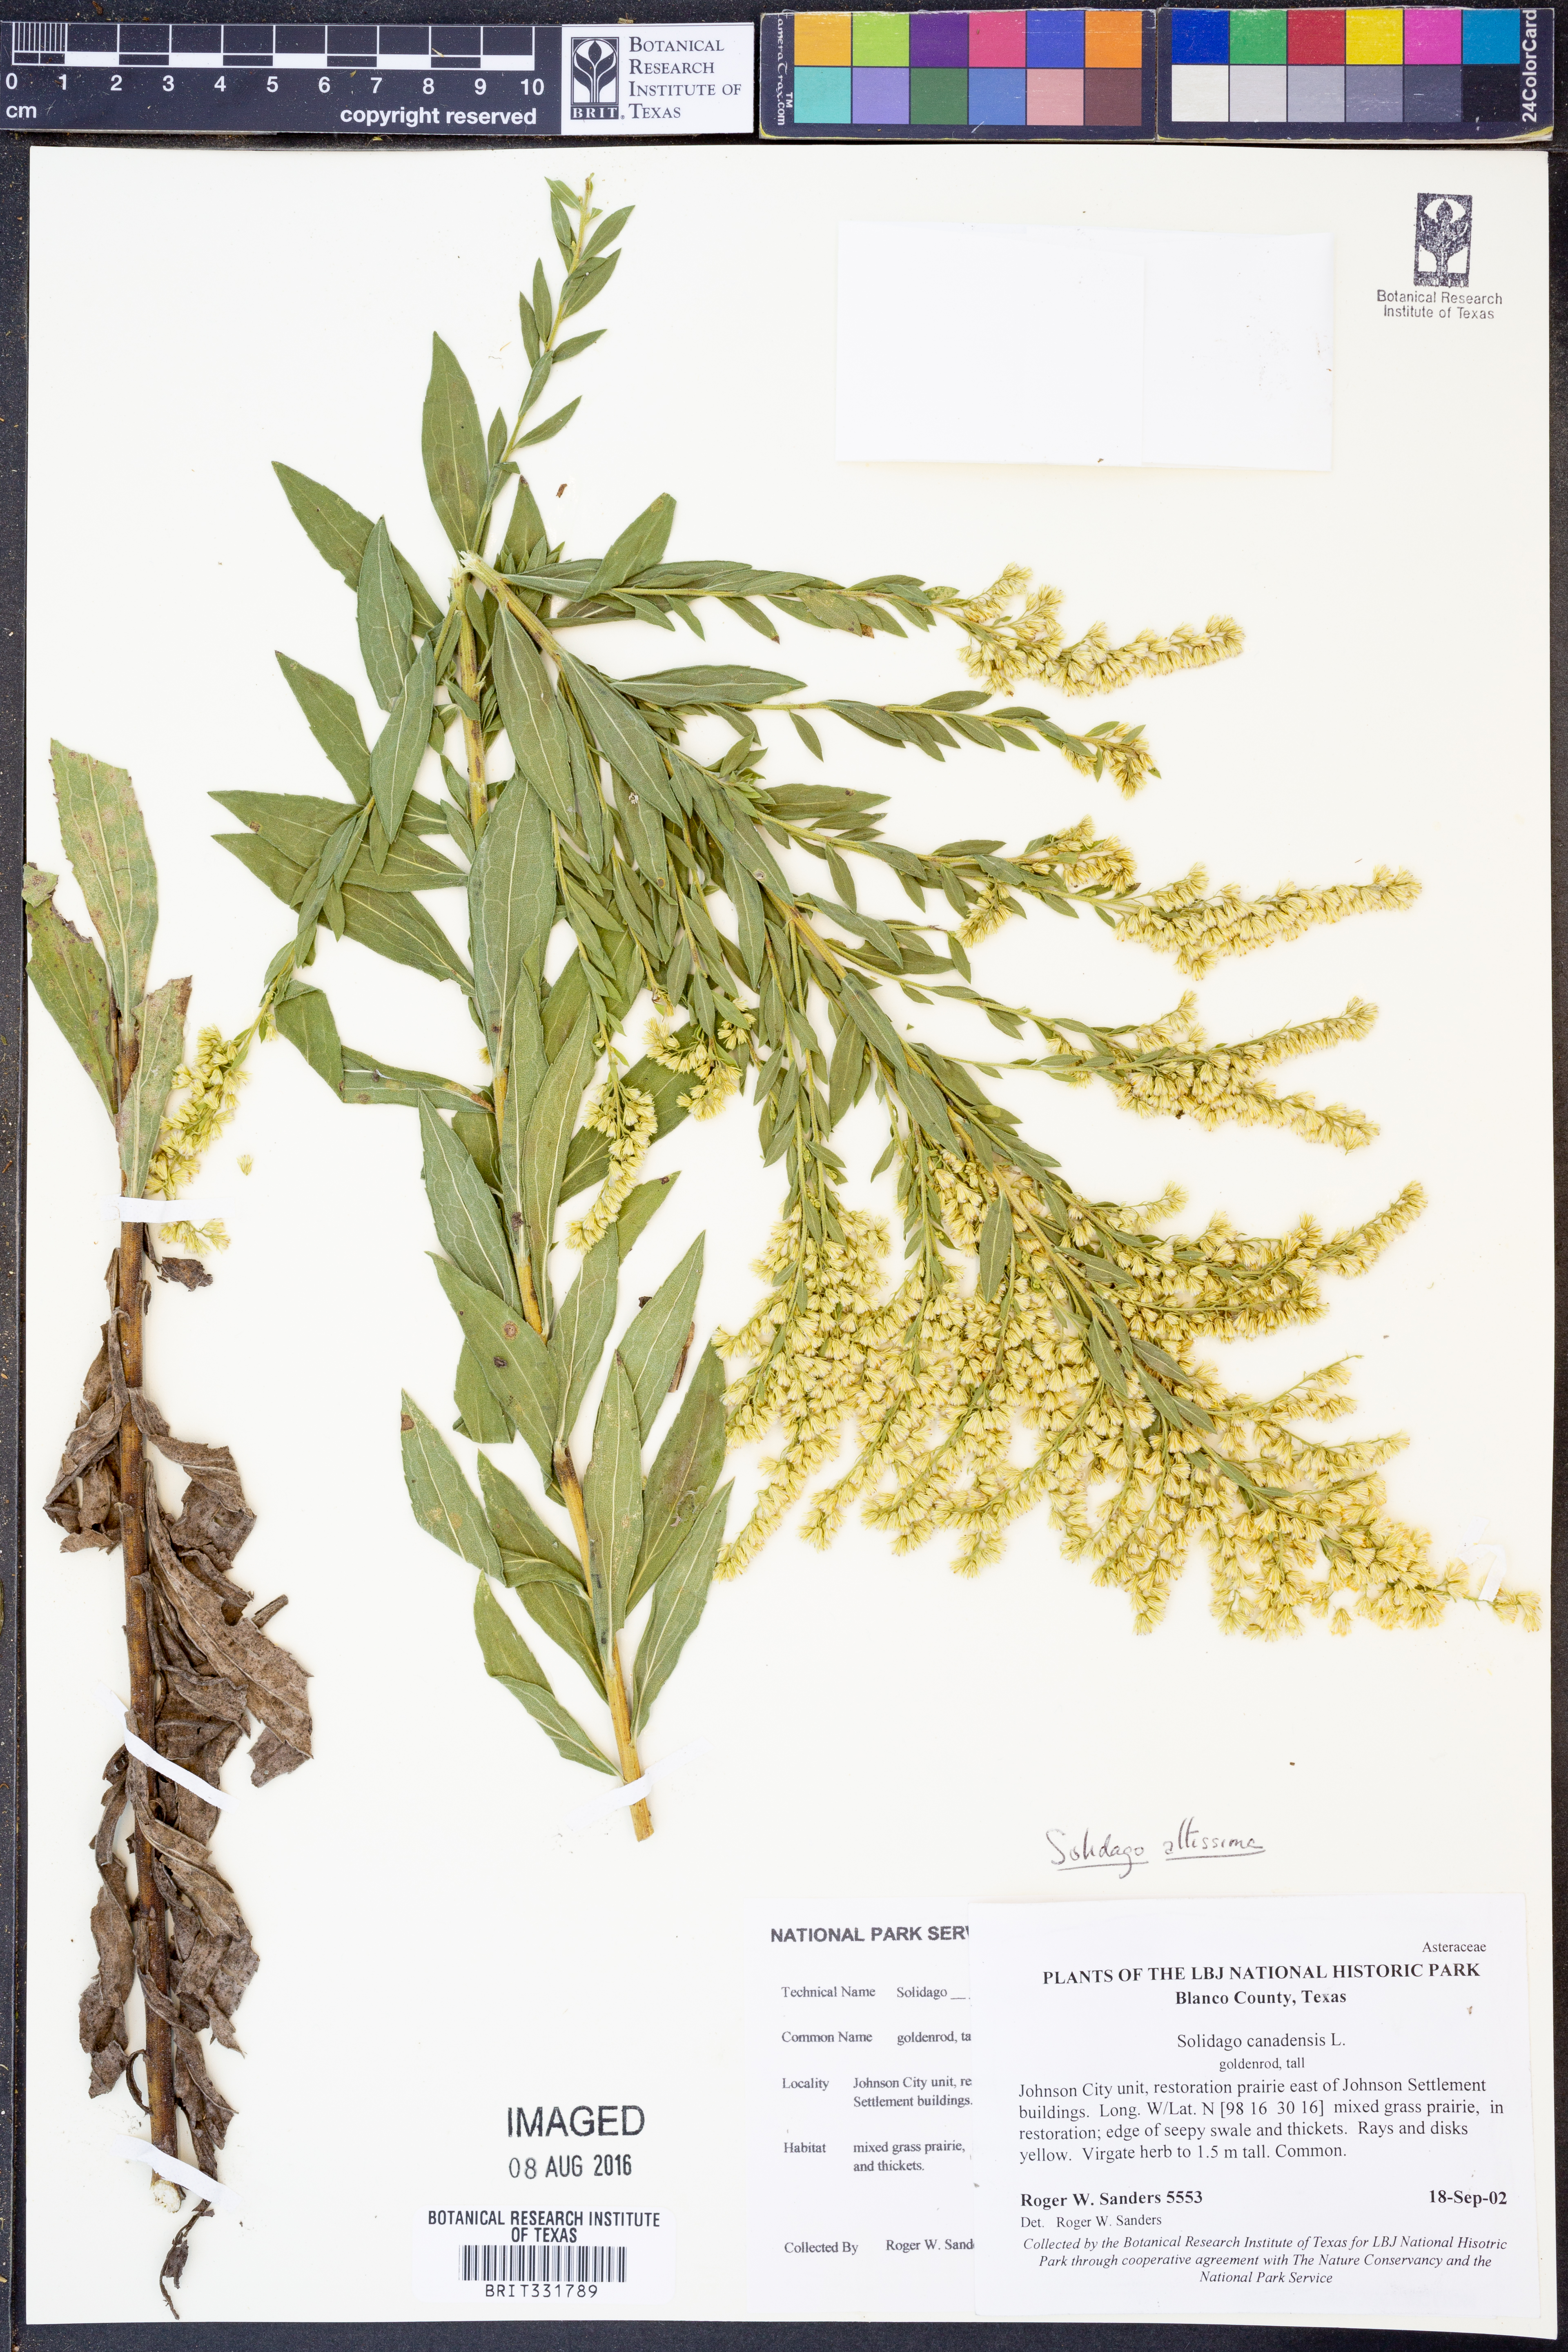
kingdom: Plantae
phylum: Tracheophyta
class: Magnoliopsida
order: Asterales
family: Asteraceae
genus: Solidago
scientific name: Solidago altissima
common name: Late goldenrod
